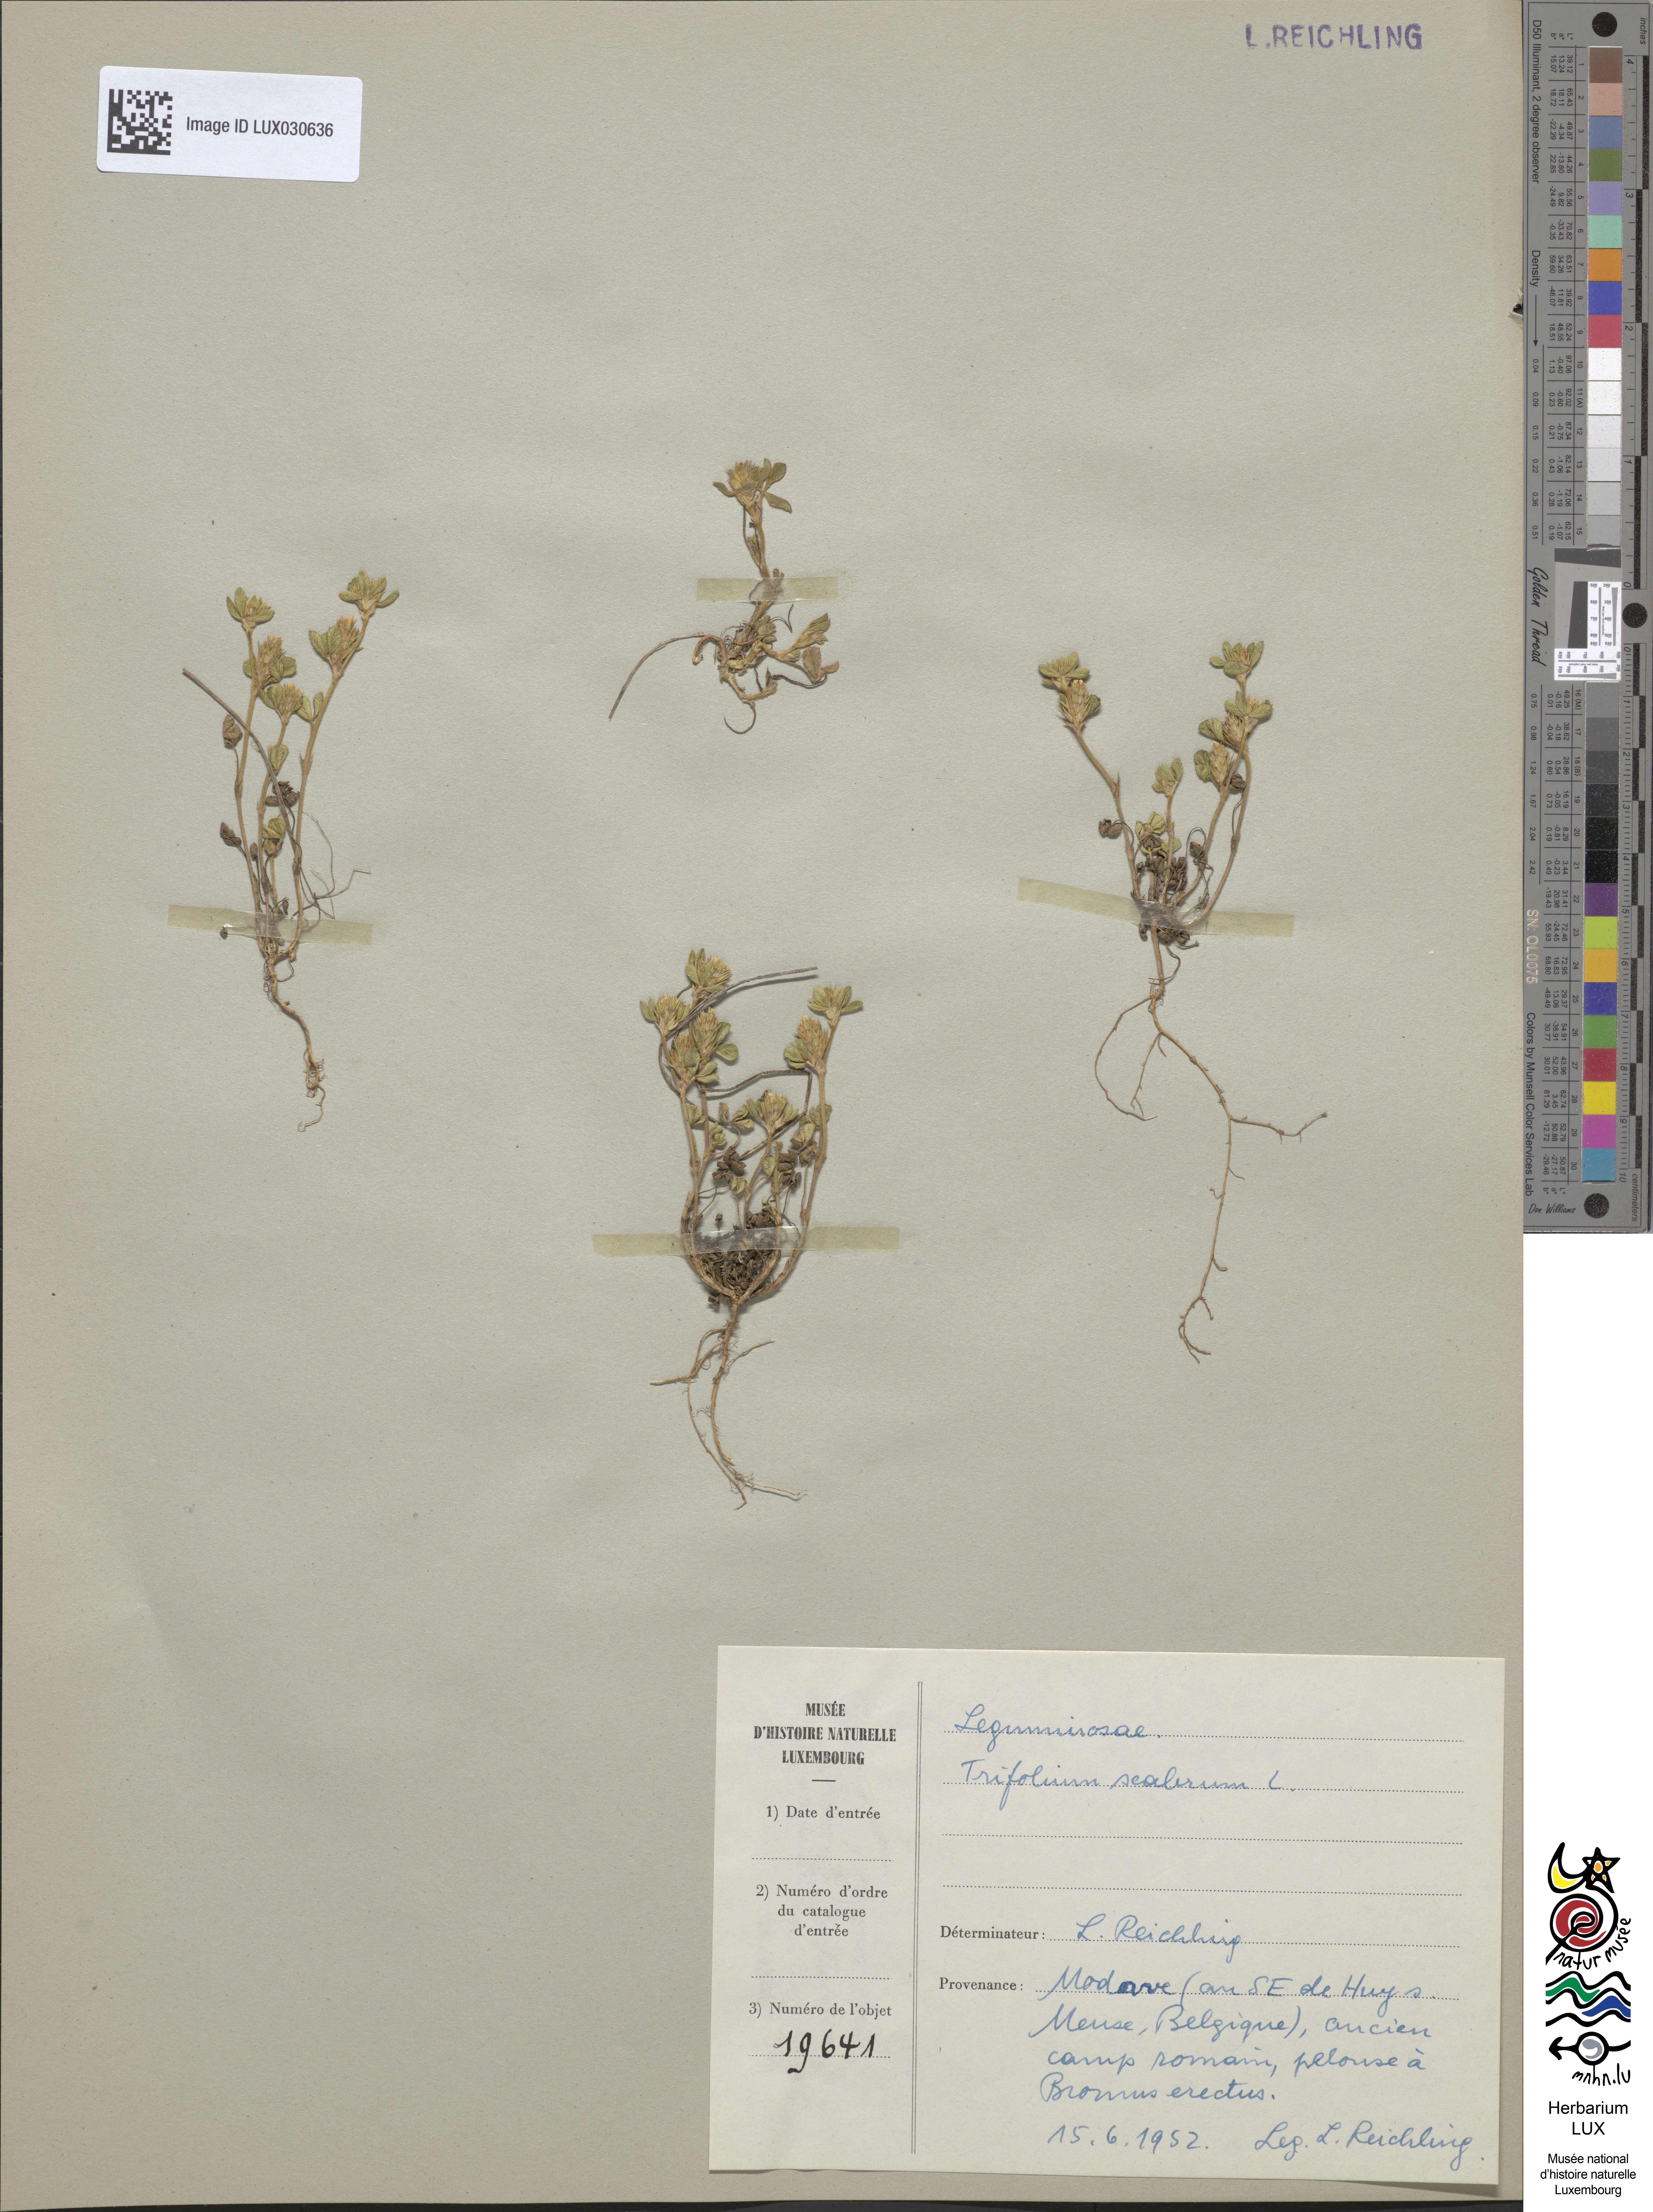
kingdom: Plantae
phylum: Tracheophyta
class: Magnoliopsida
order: Fabales
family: Fabaceae
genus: Trifolium
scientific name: Trifolium scabrum
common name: Rough clover
